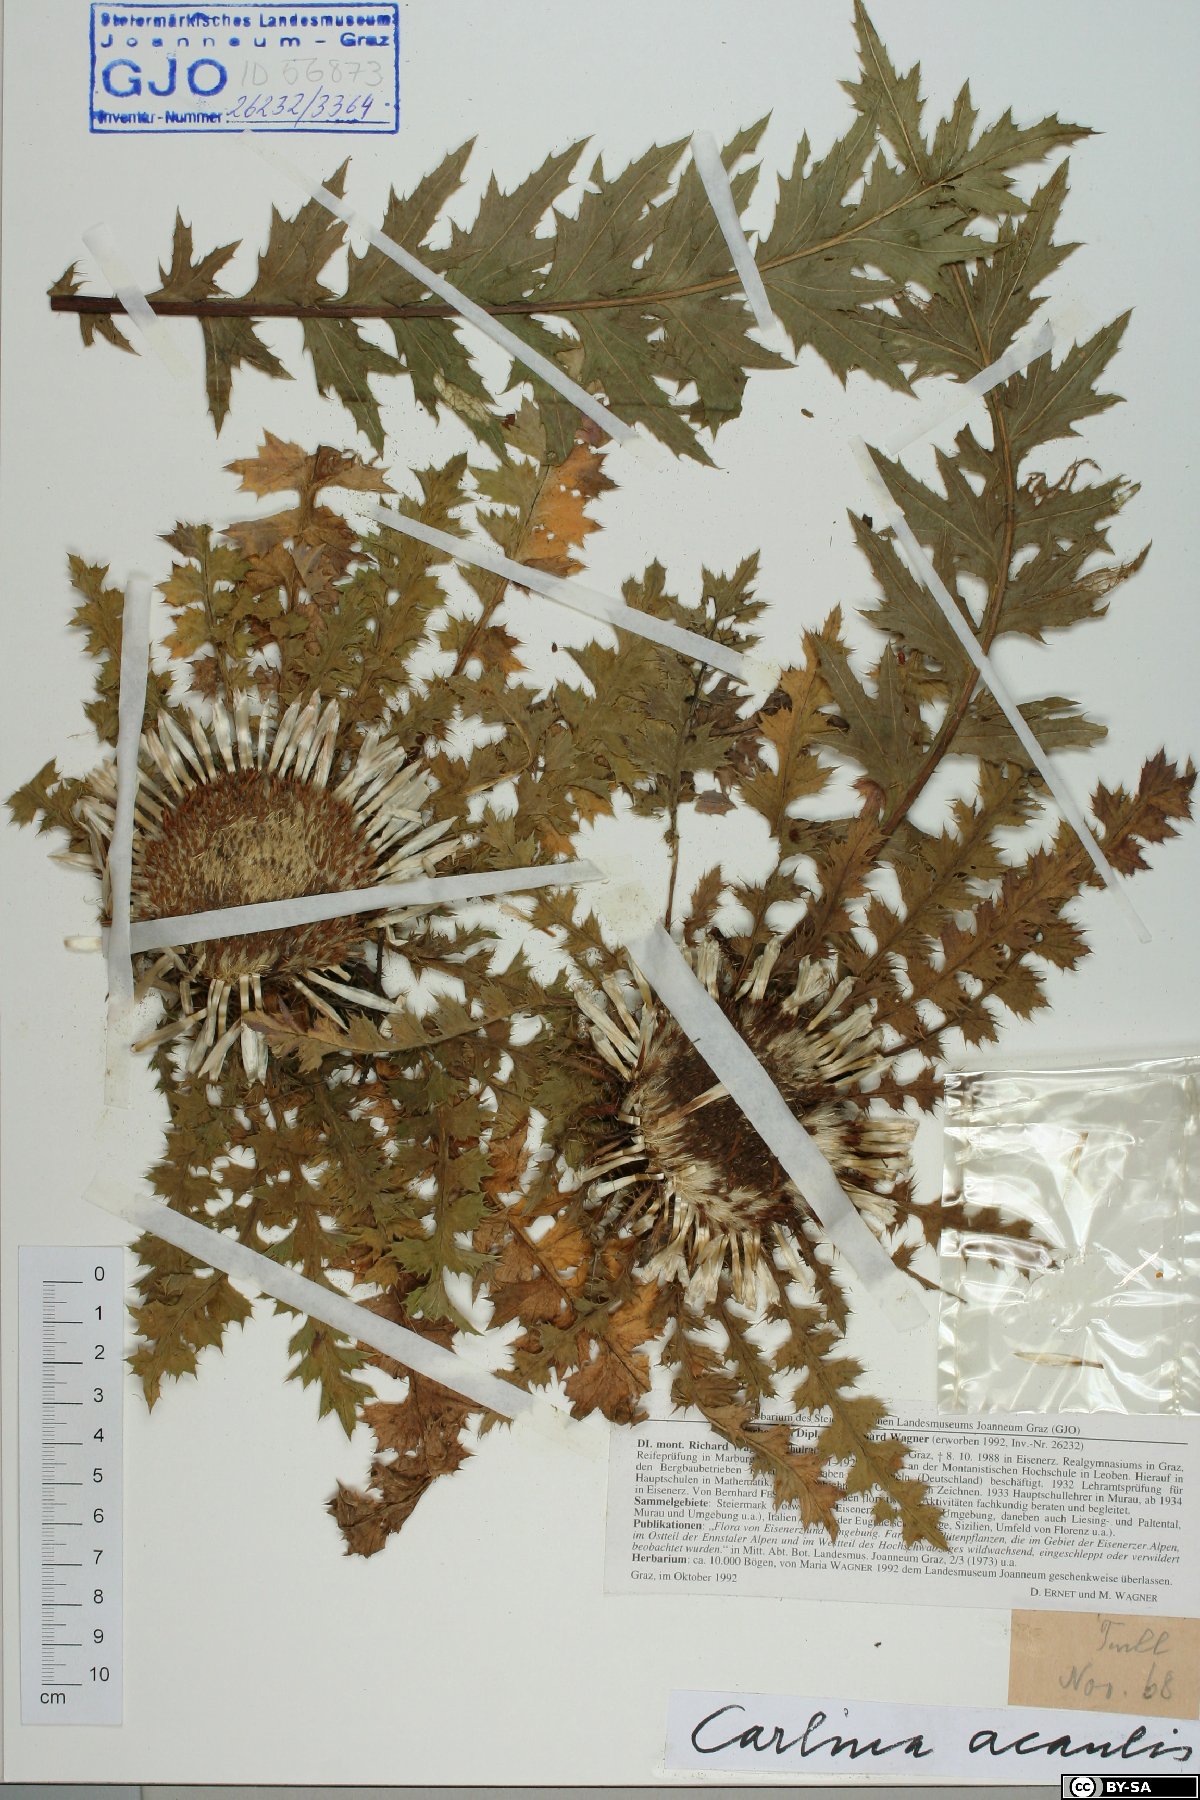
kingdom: Plantae
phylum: Tracheophyta
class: Magnoliopsida
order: Asterales
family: Asteraceae
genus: Carlina
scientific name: Carlina acaulis
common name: Stemless carline thistle
